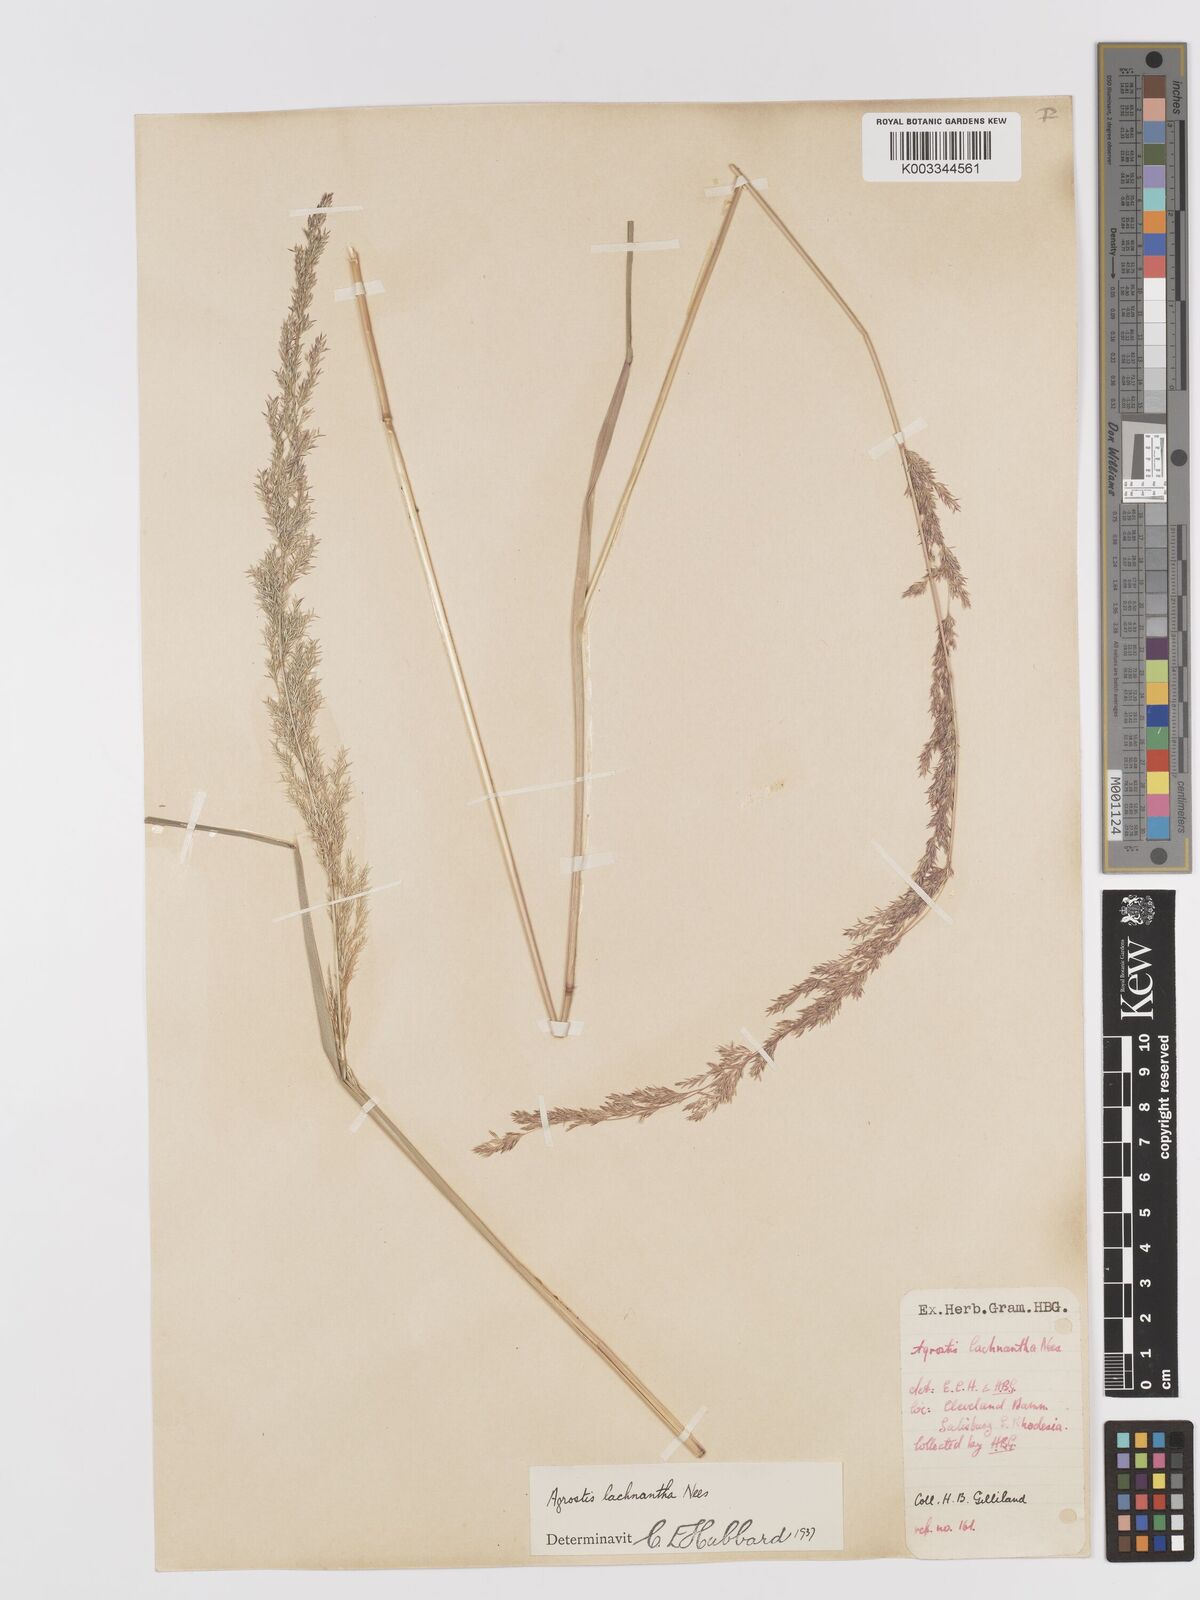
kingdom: Plantae
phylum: Tracheophyta
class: Liliopsida
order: Poales
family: Poaceae
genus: Lachnagrostis
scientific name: Lachnagrostis lachnantha
